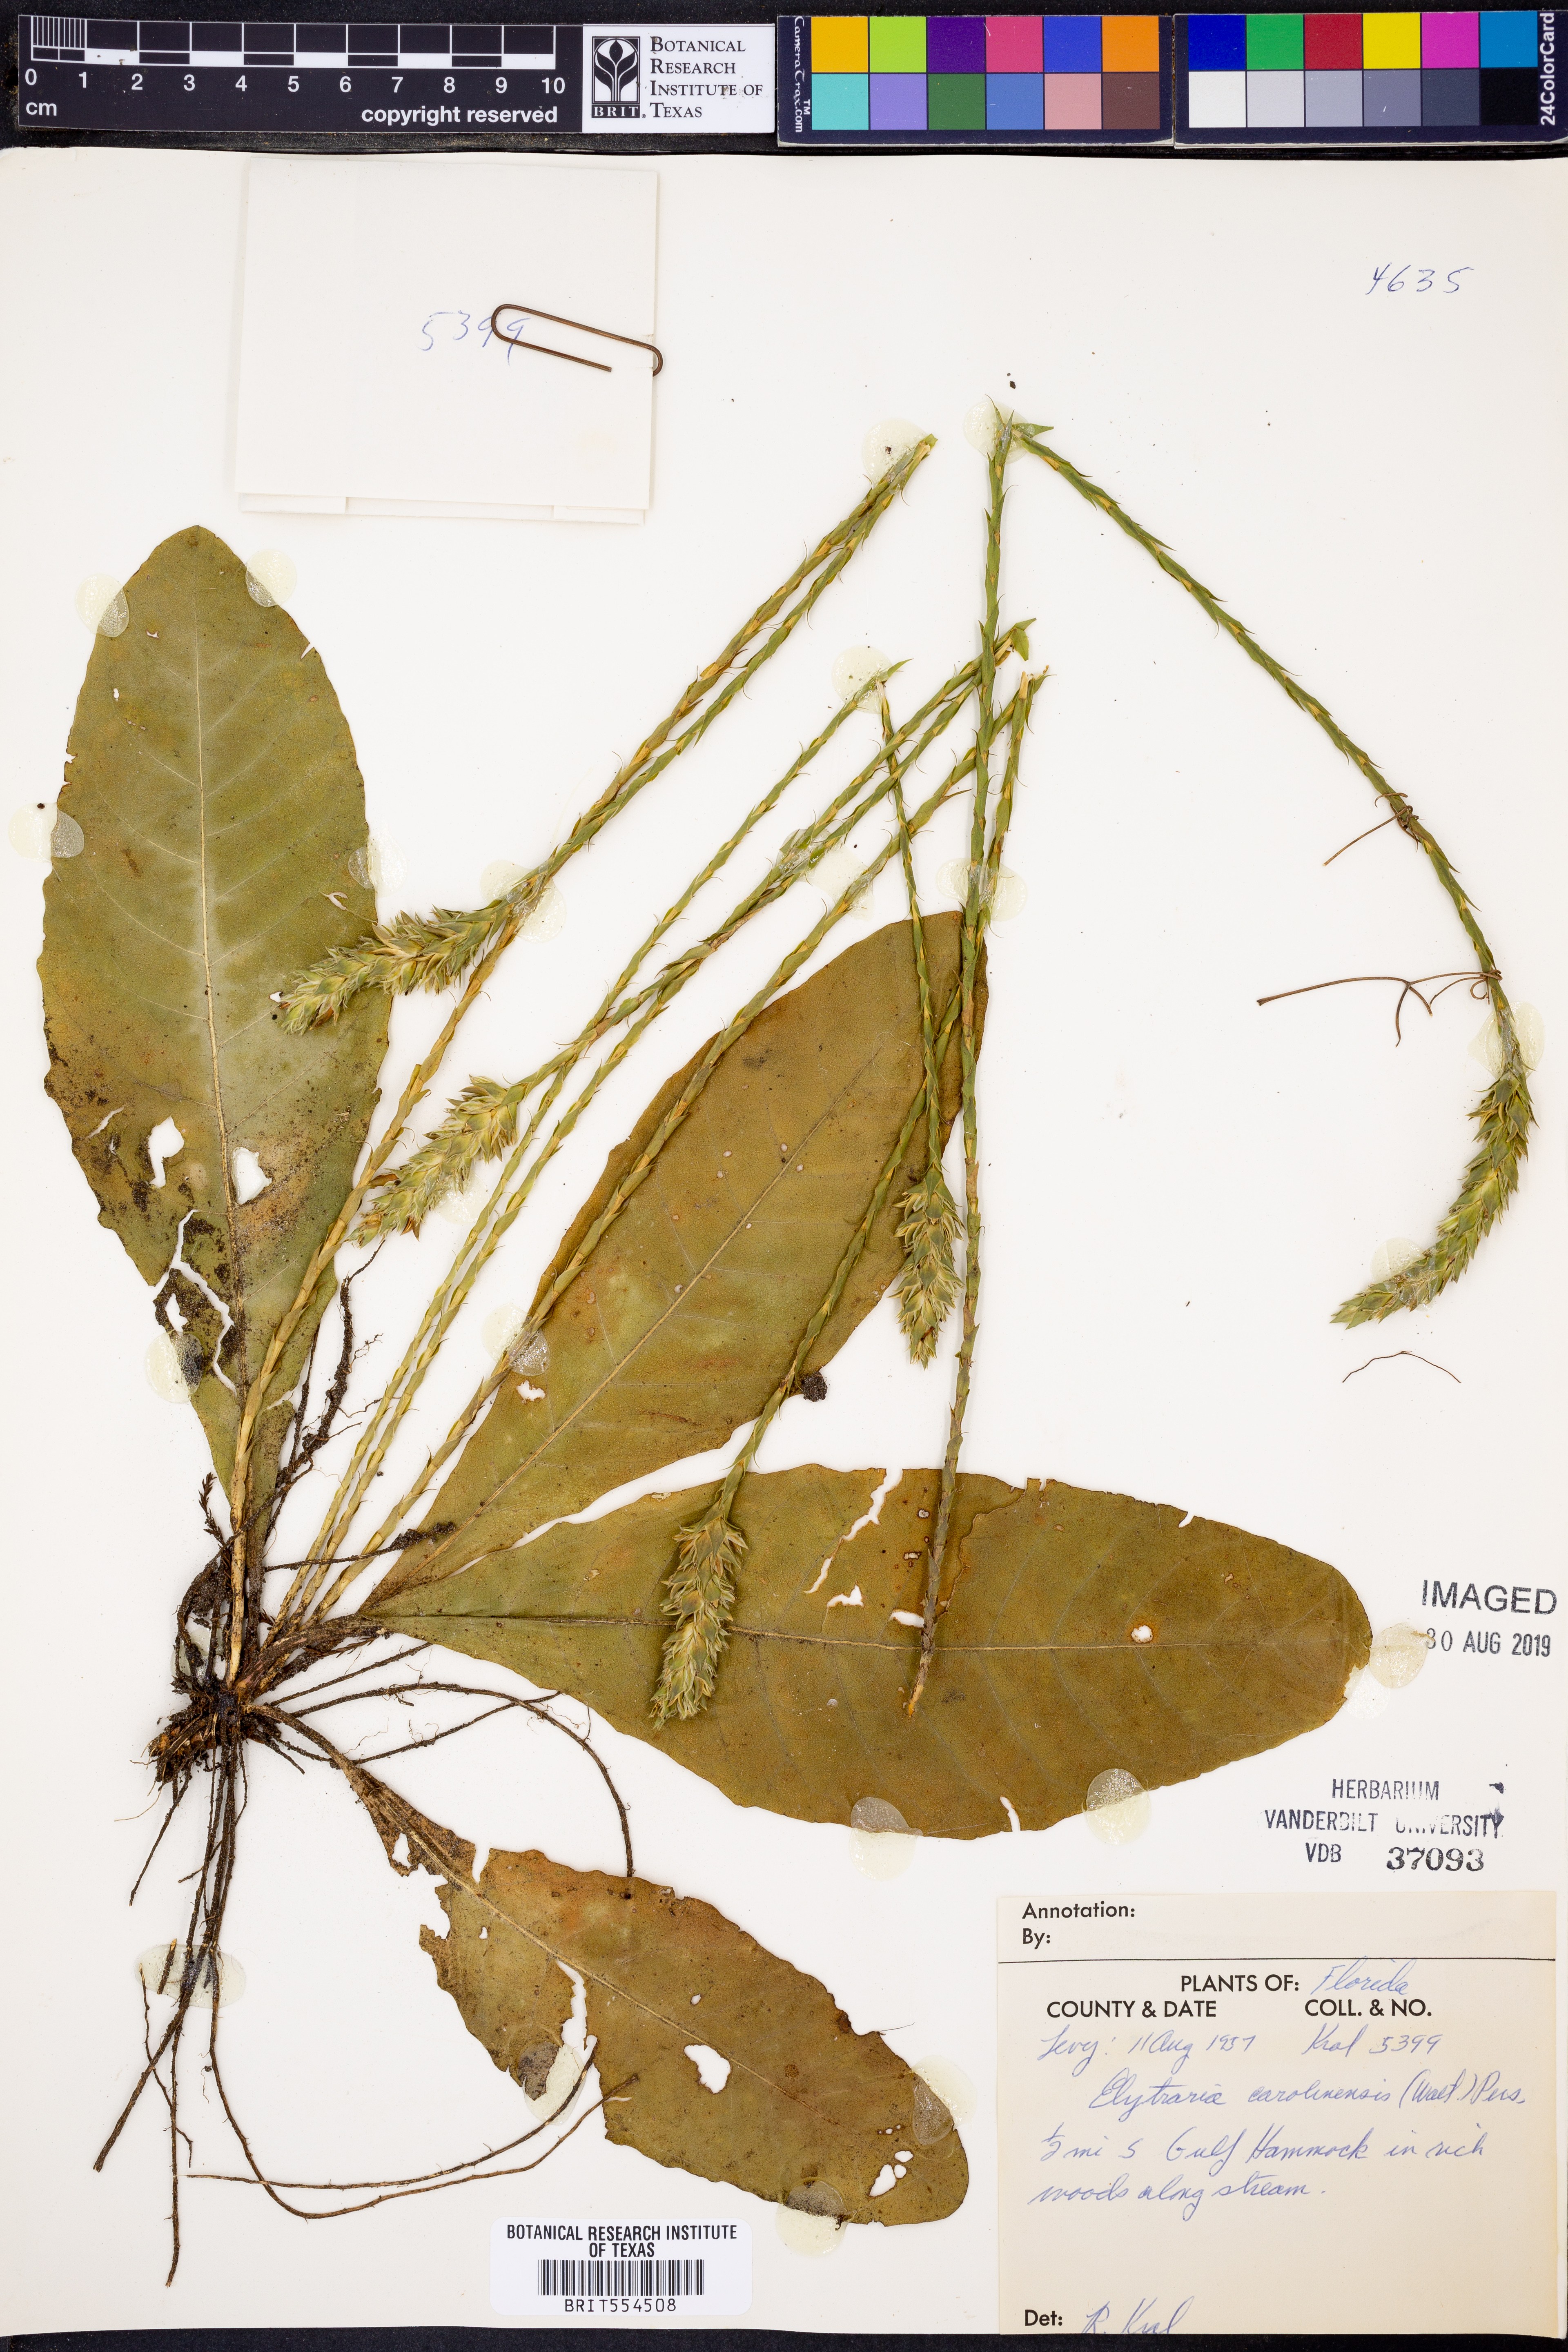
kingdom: Plantae
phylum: Tracheophyta
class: Magnoliopsida
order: Lamiales
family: Acanthaceae
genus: Elytraria
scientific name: Elytraria caroliniensis
